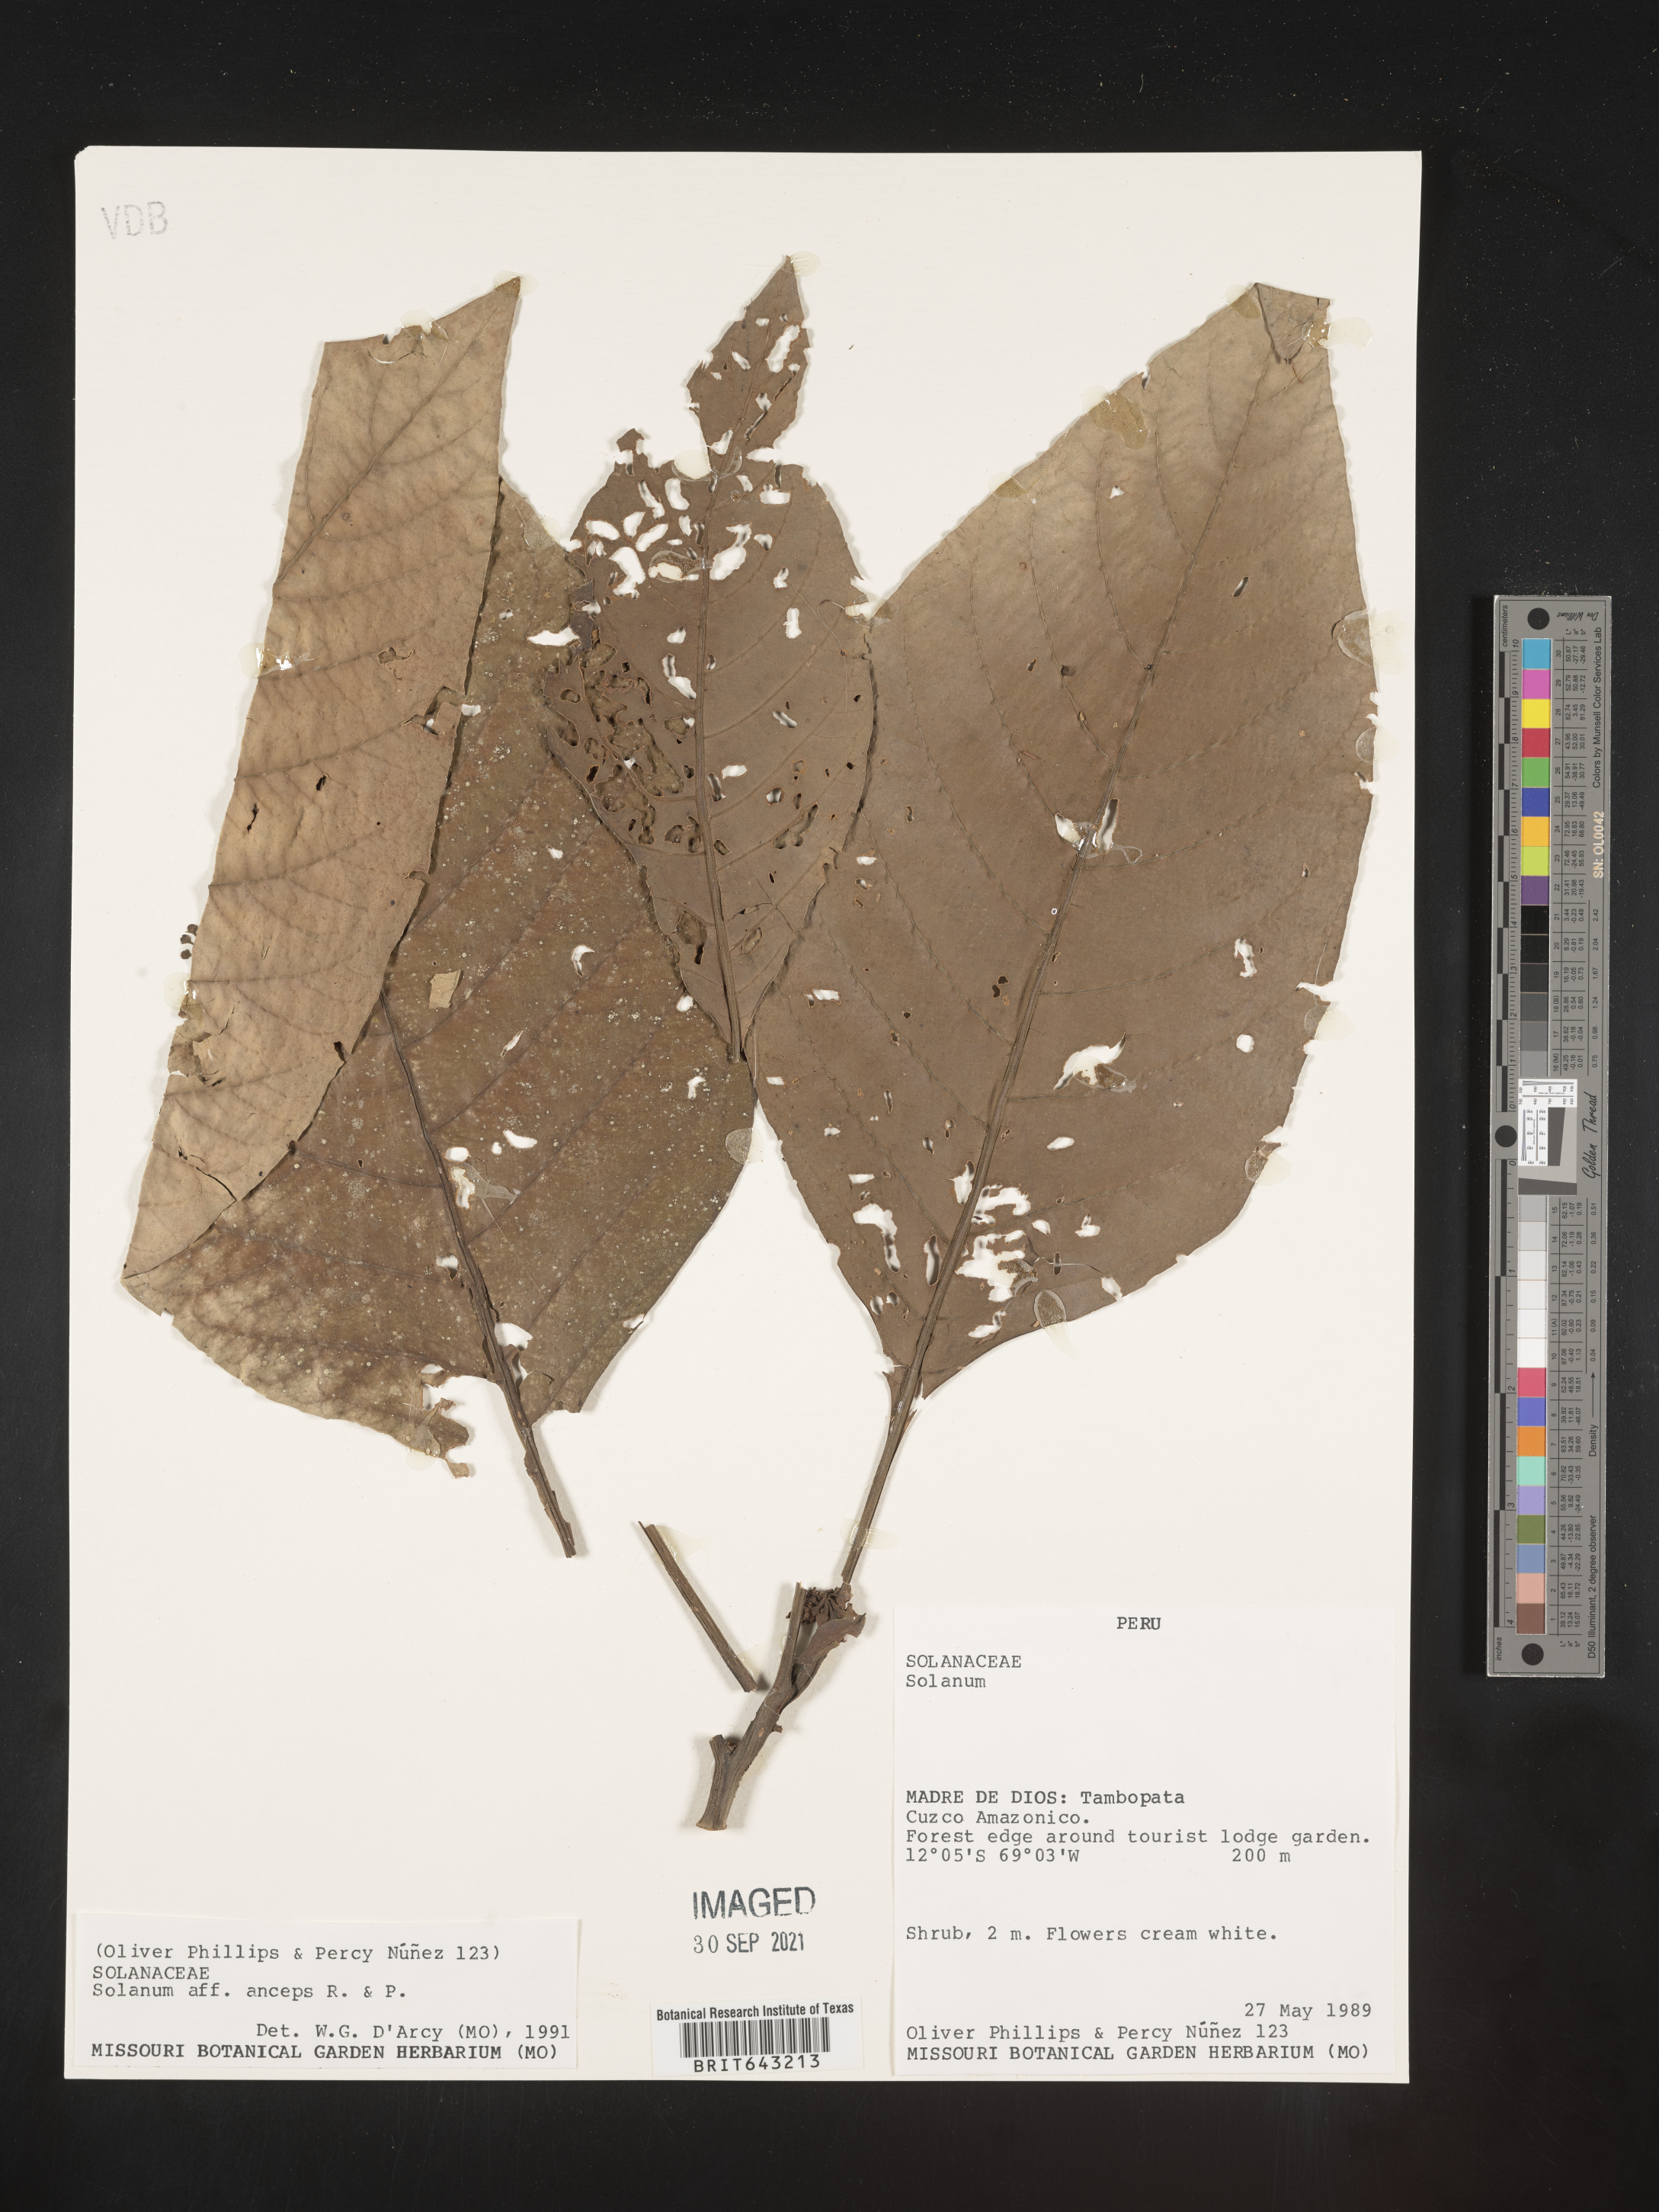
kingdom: Plantae
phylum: Tracheophyta
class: Magnoliopsida
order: Solanales
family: Solanaceae
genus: Solanum
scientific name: Solanum
